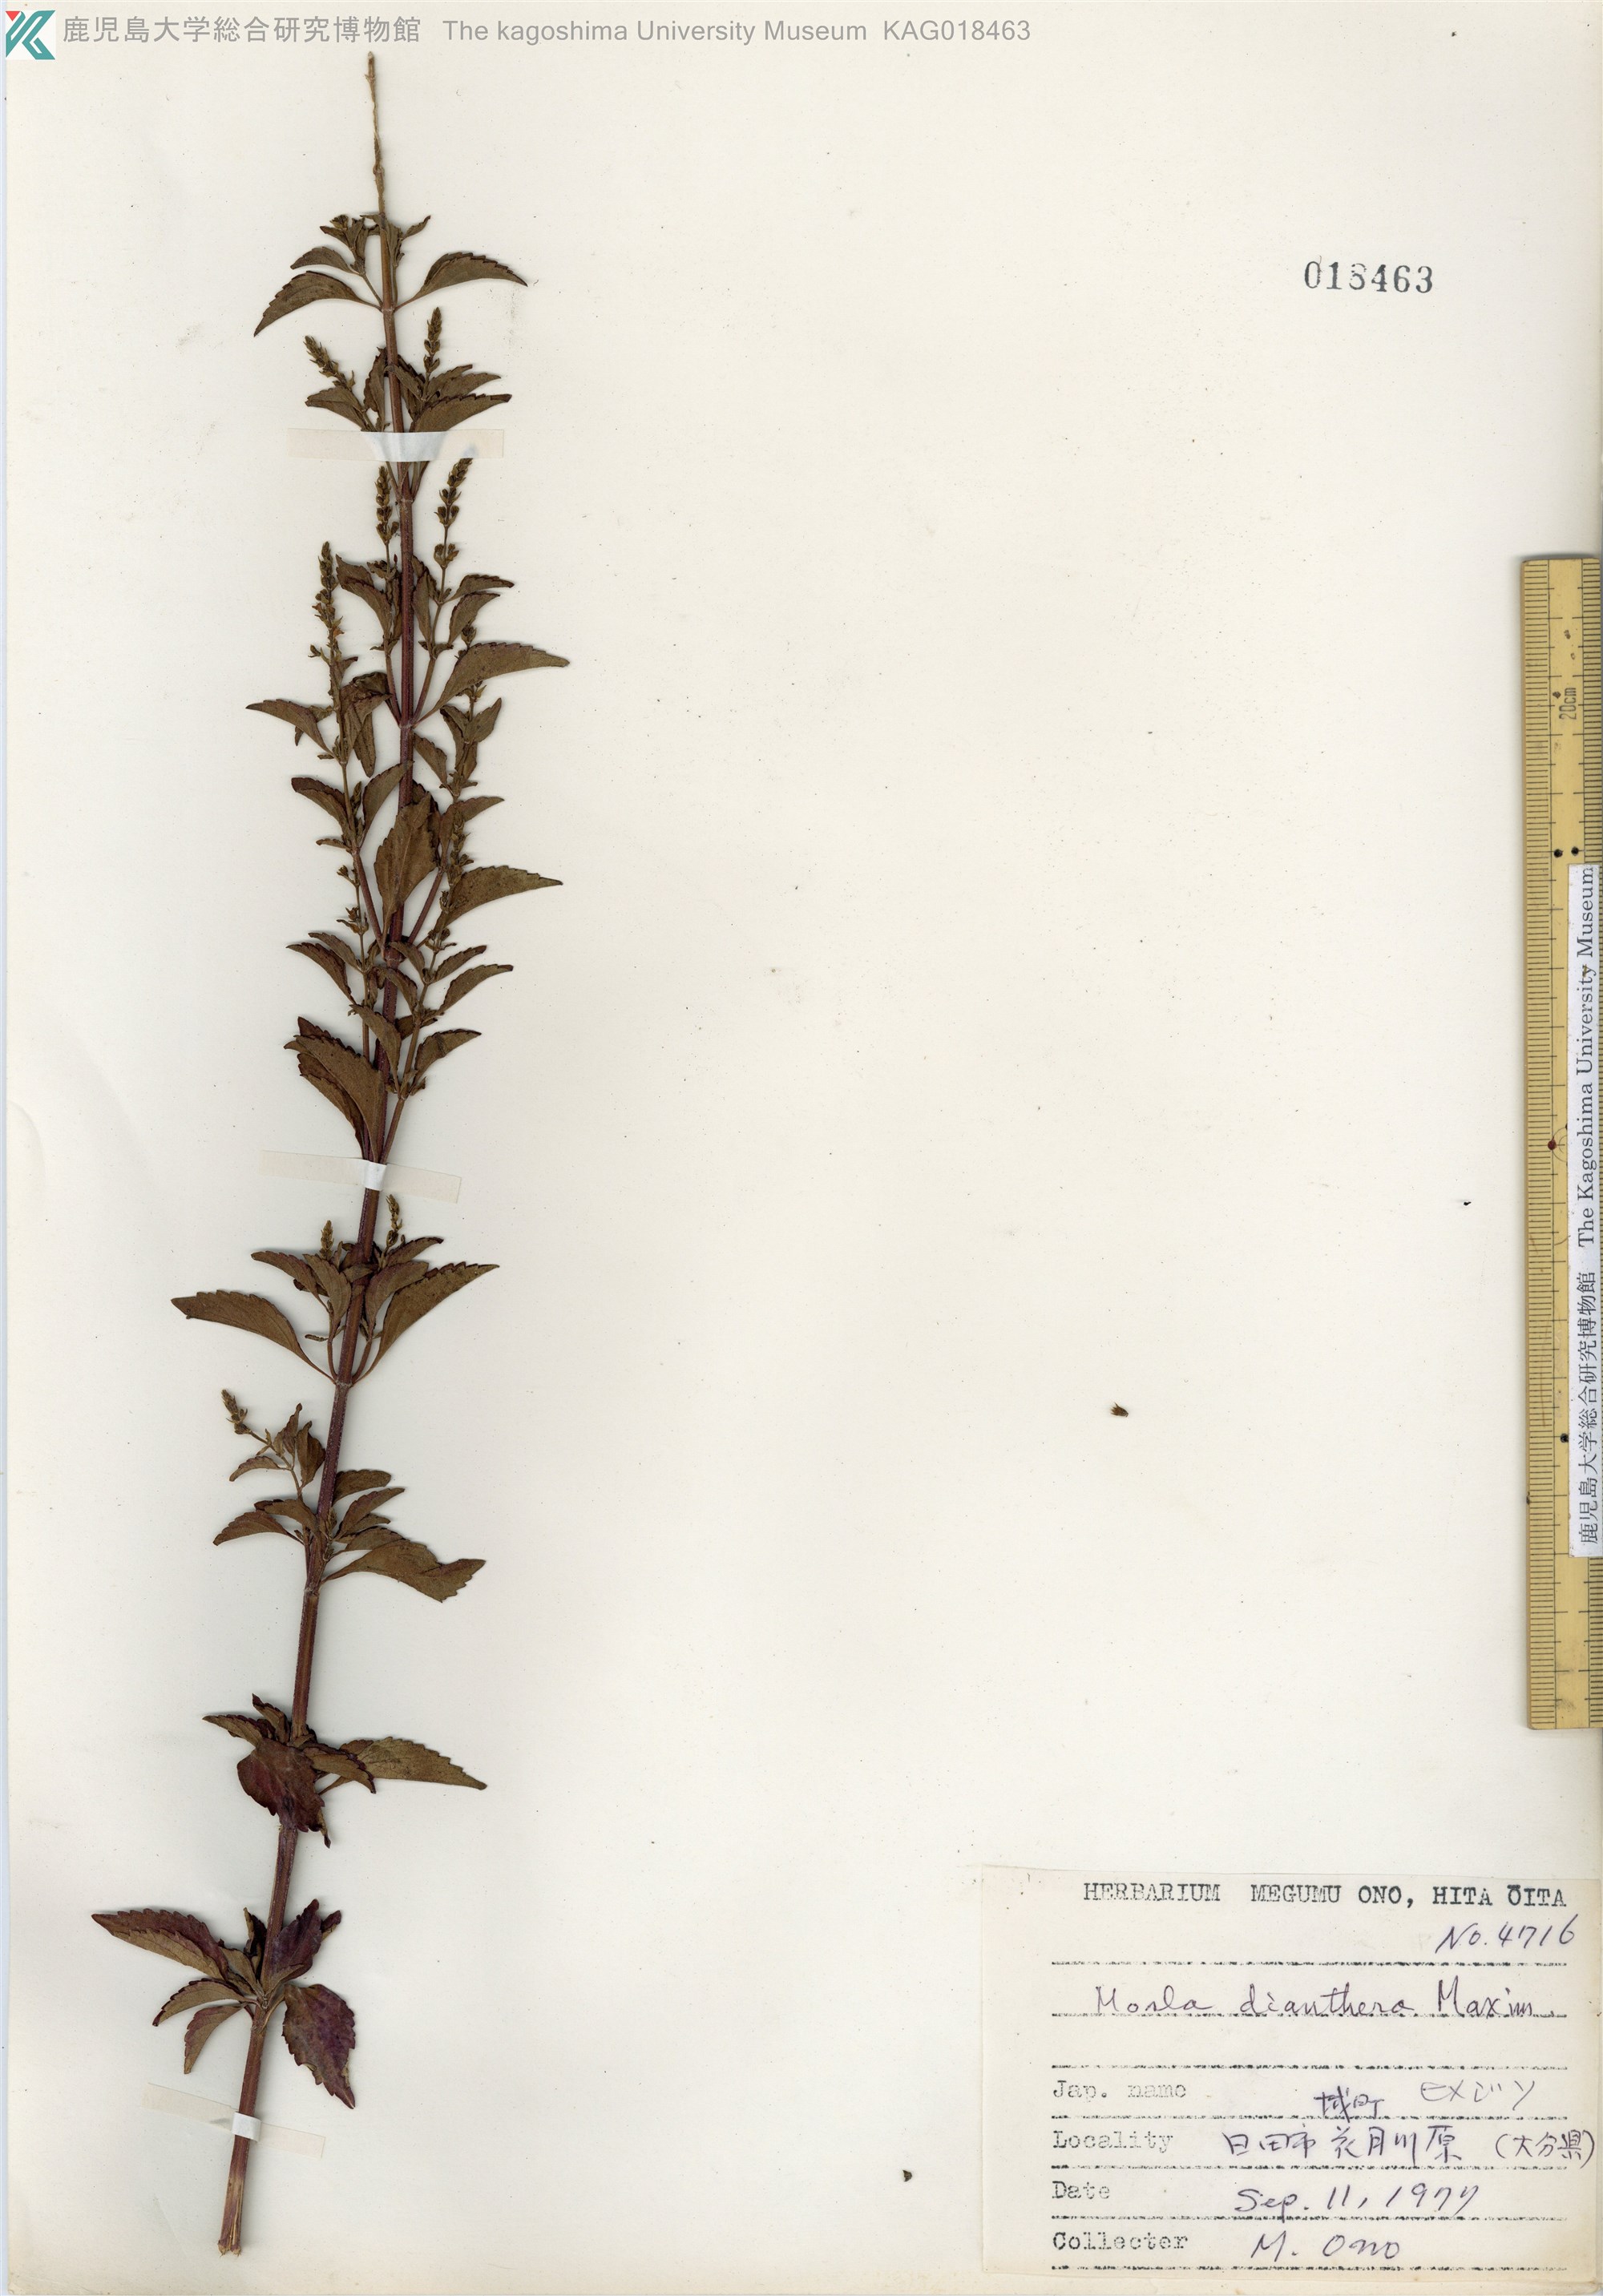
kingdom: Plantae
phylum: Tracheophyta
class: Magnoliopsida
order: Lamiales
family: Lamiaceae
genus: Mosla
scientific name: Mosla dianthera
